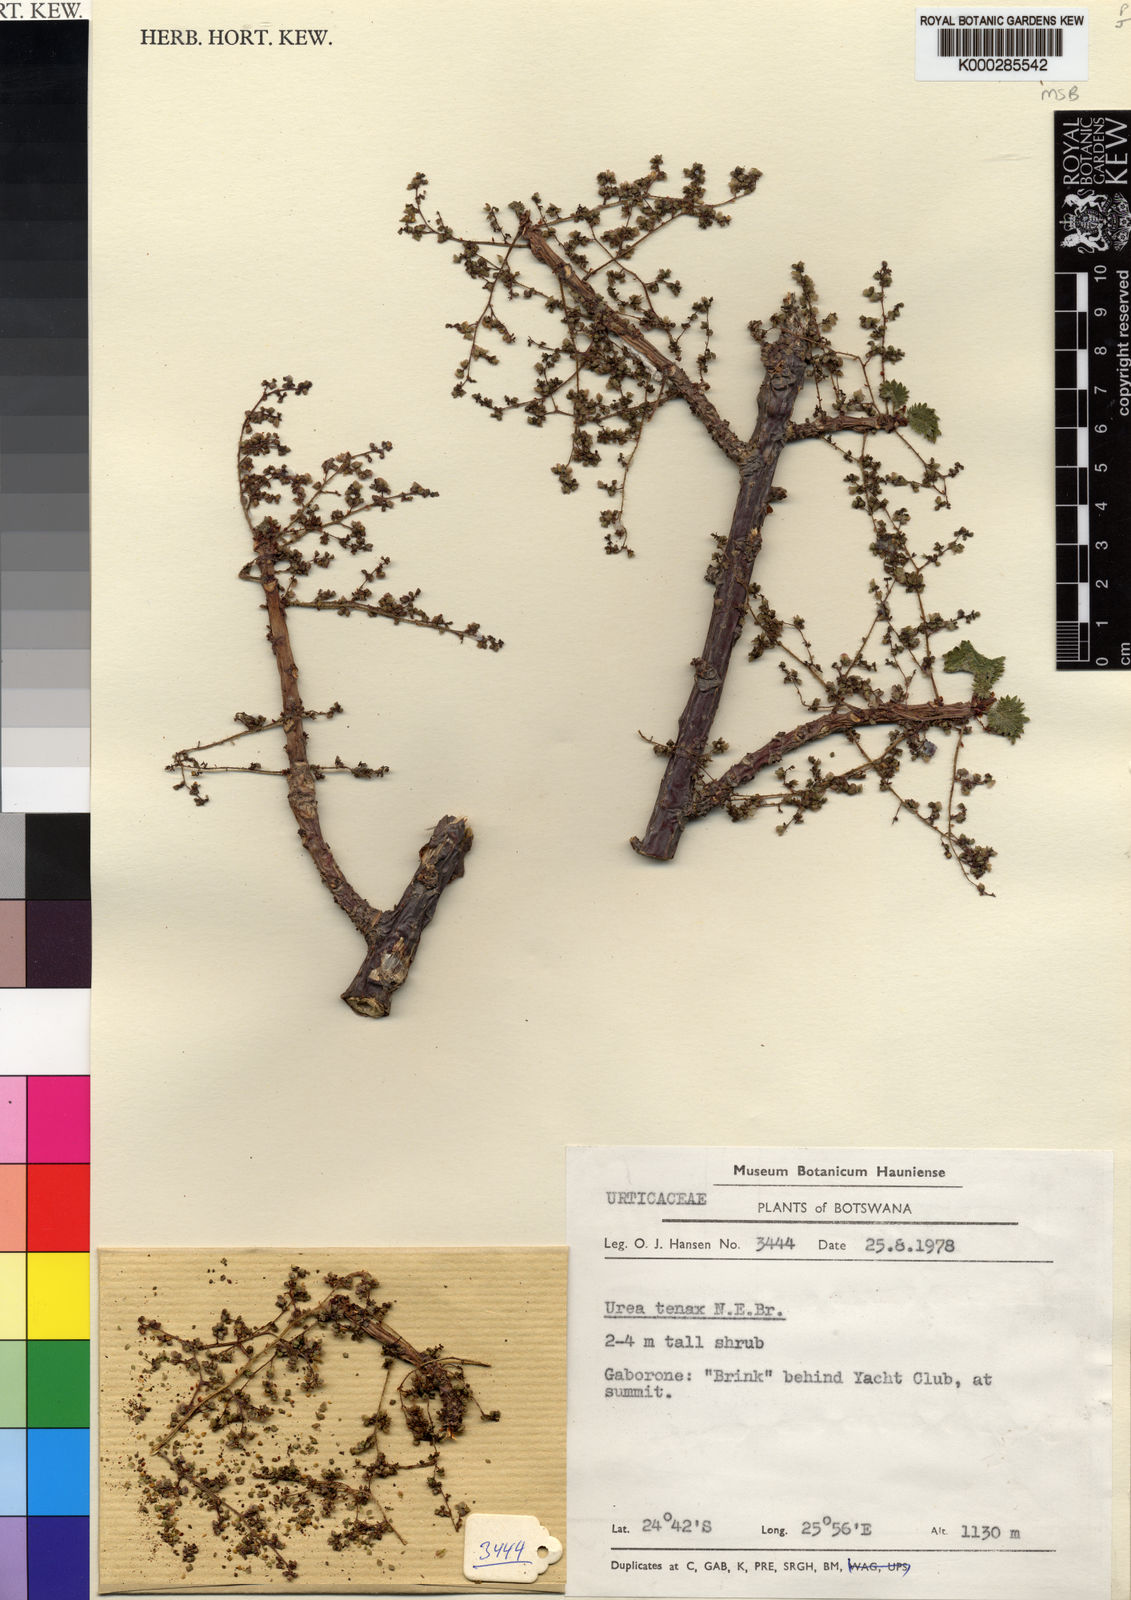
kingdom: Plantae
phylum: Tracheophyta
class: Magnoliopsida
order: Rosales
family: Urticaceae
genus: Obetia
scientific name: Obetia tenax
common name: Rock tree nettle
